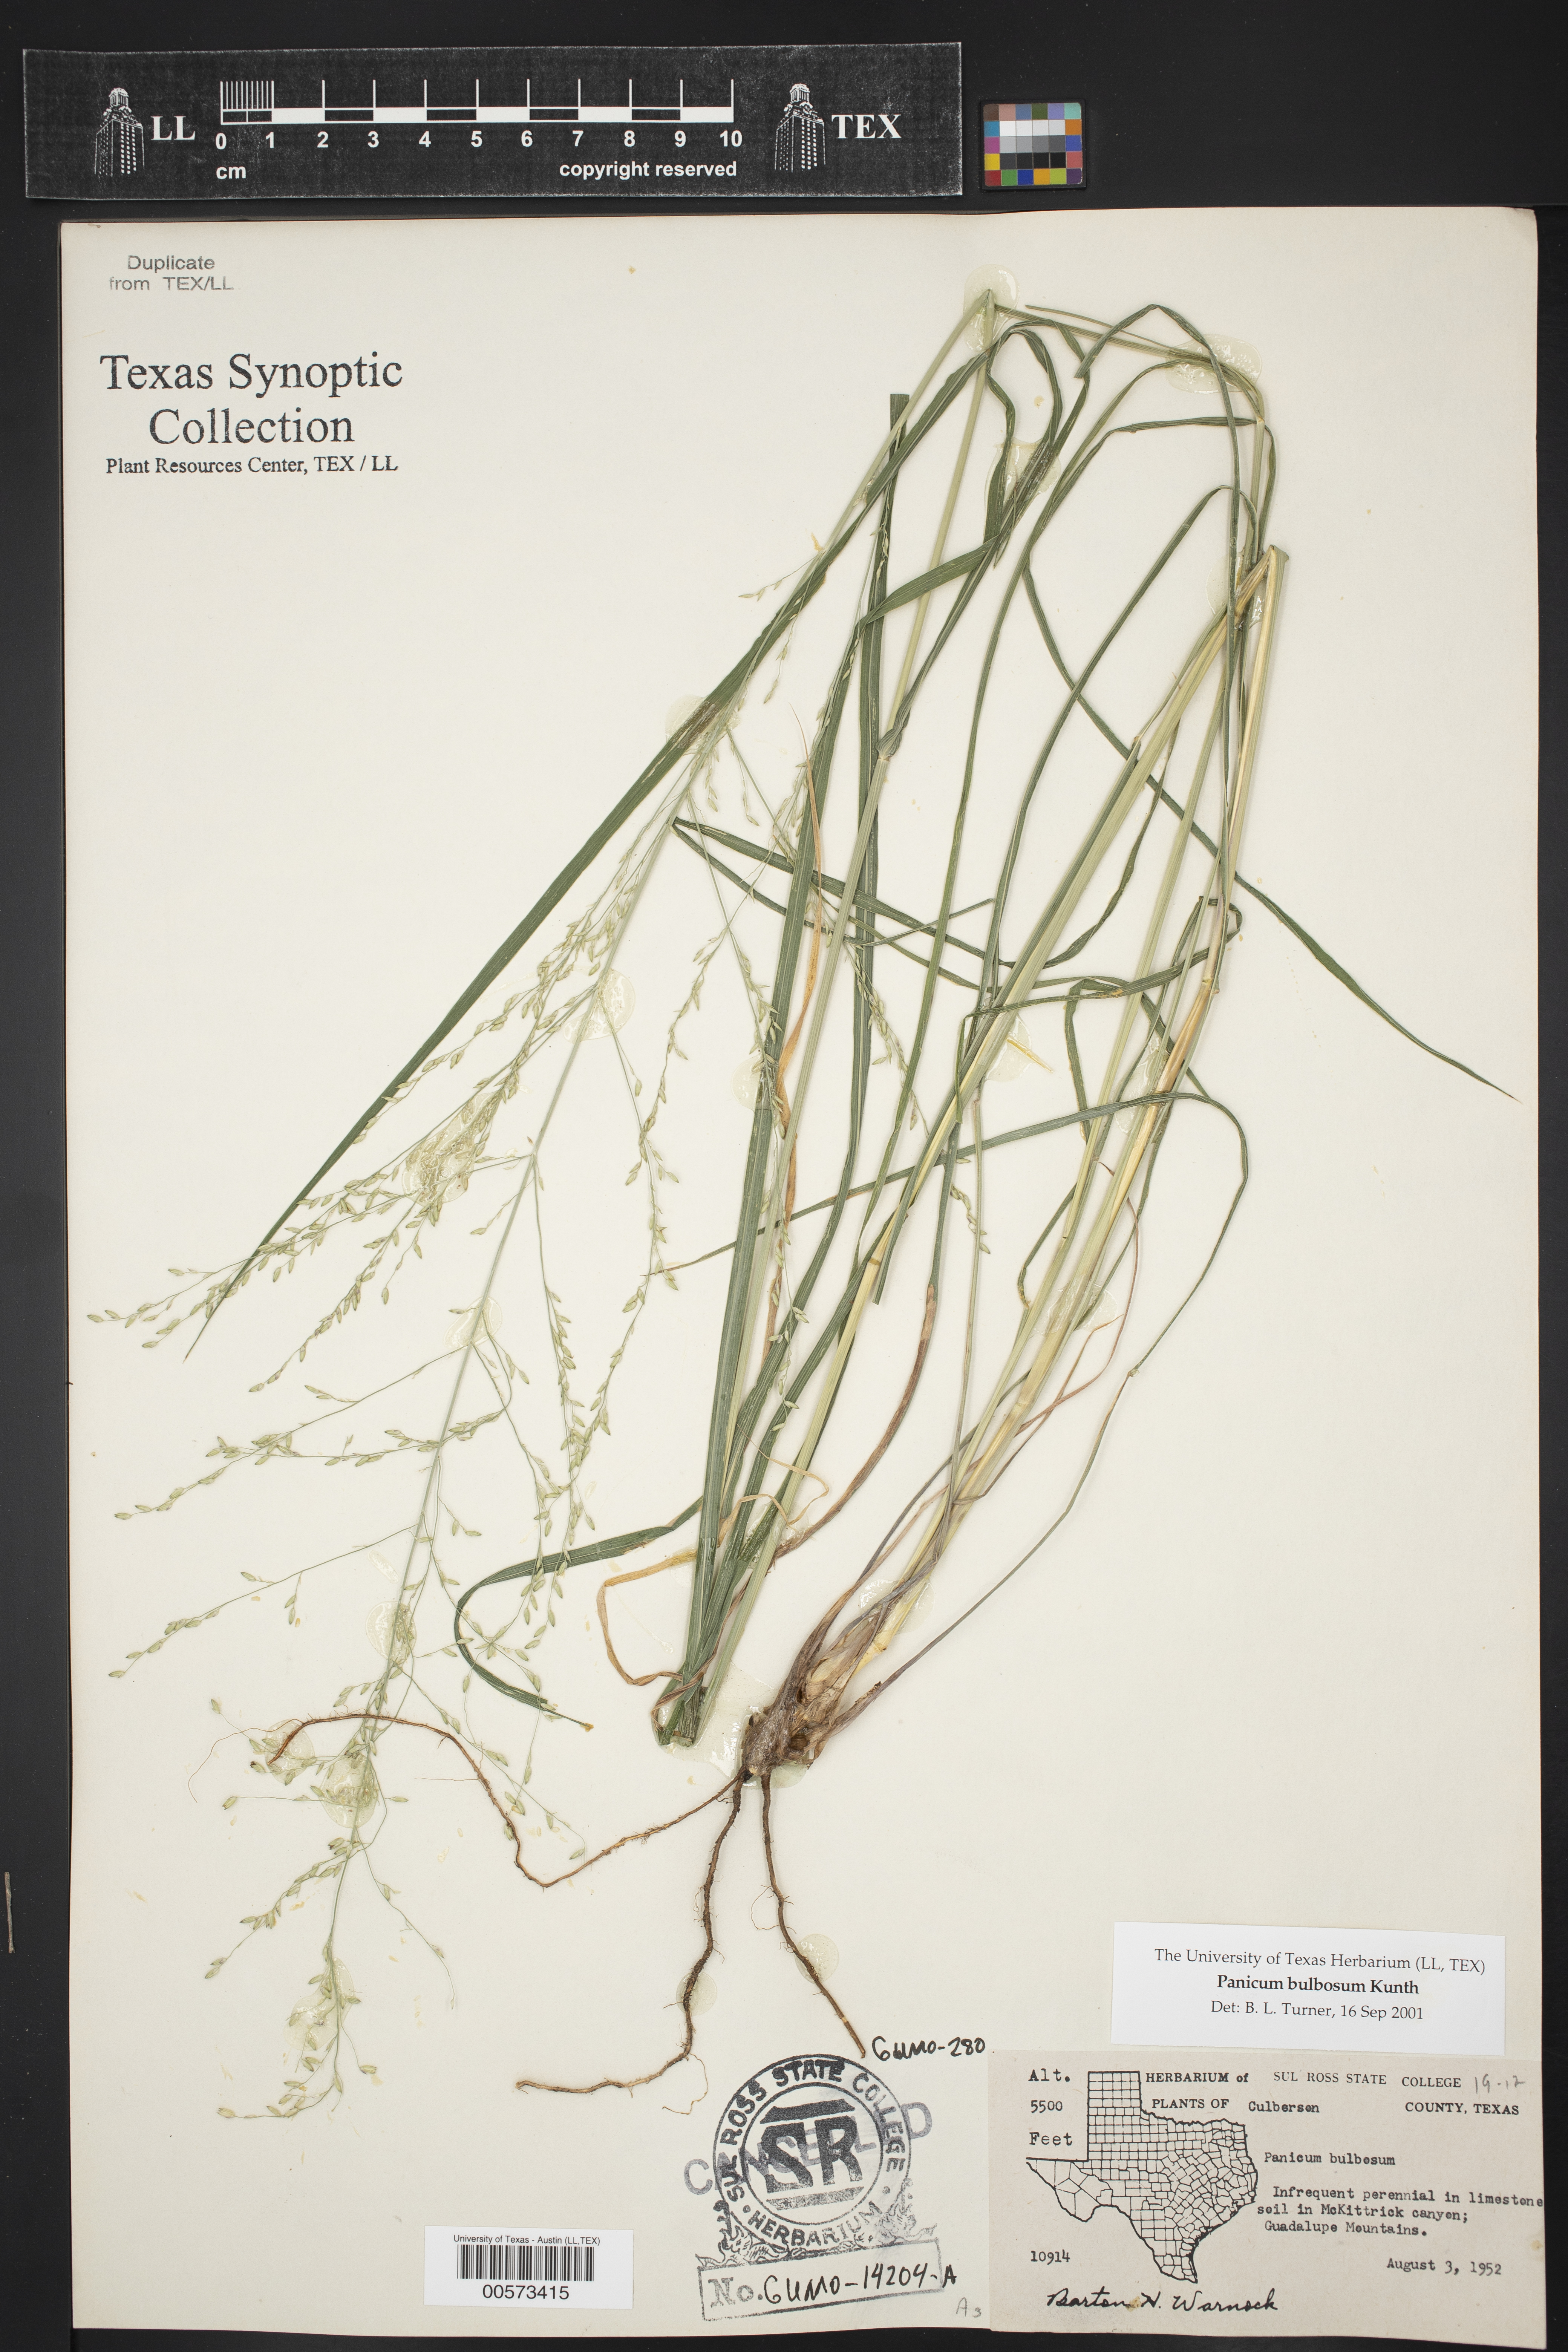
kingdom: Plantae
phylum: Tracheophyta
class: Liliopsida
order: Poales
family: Poaceae
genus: Zuloagaea
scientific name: Zuloagaea bulbosa
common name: Canyon panic grass
